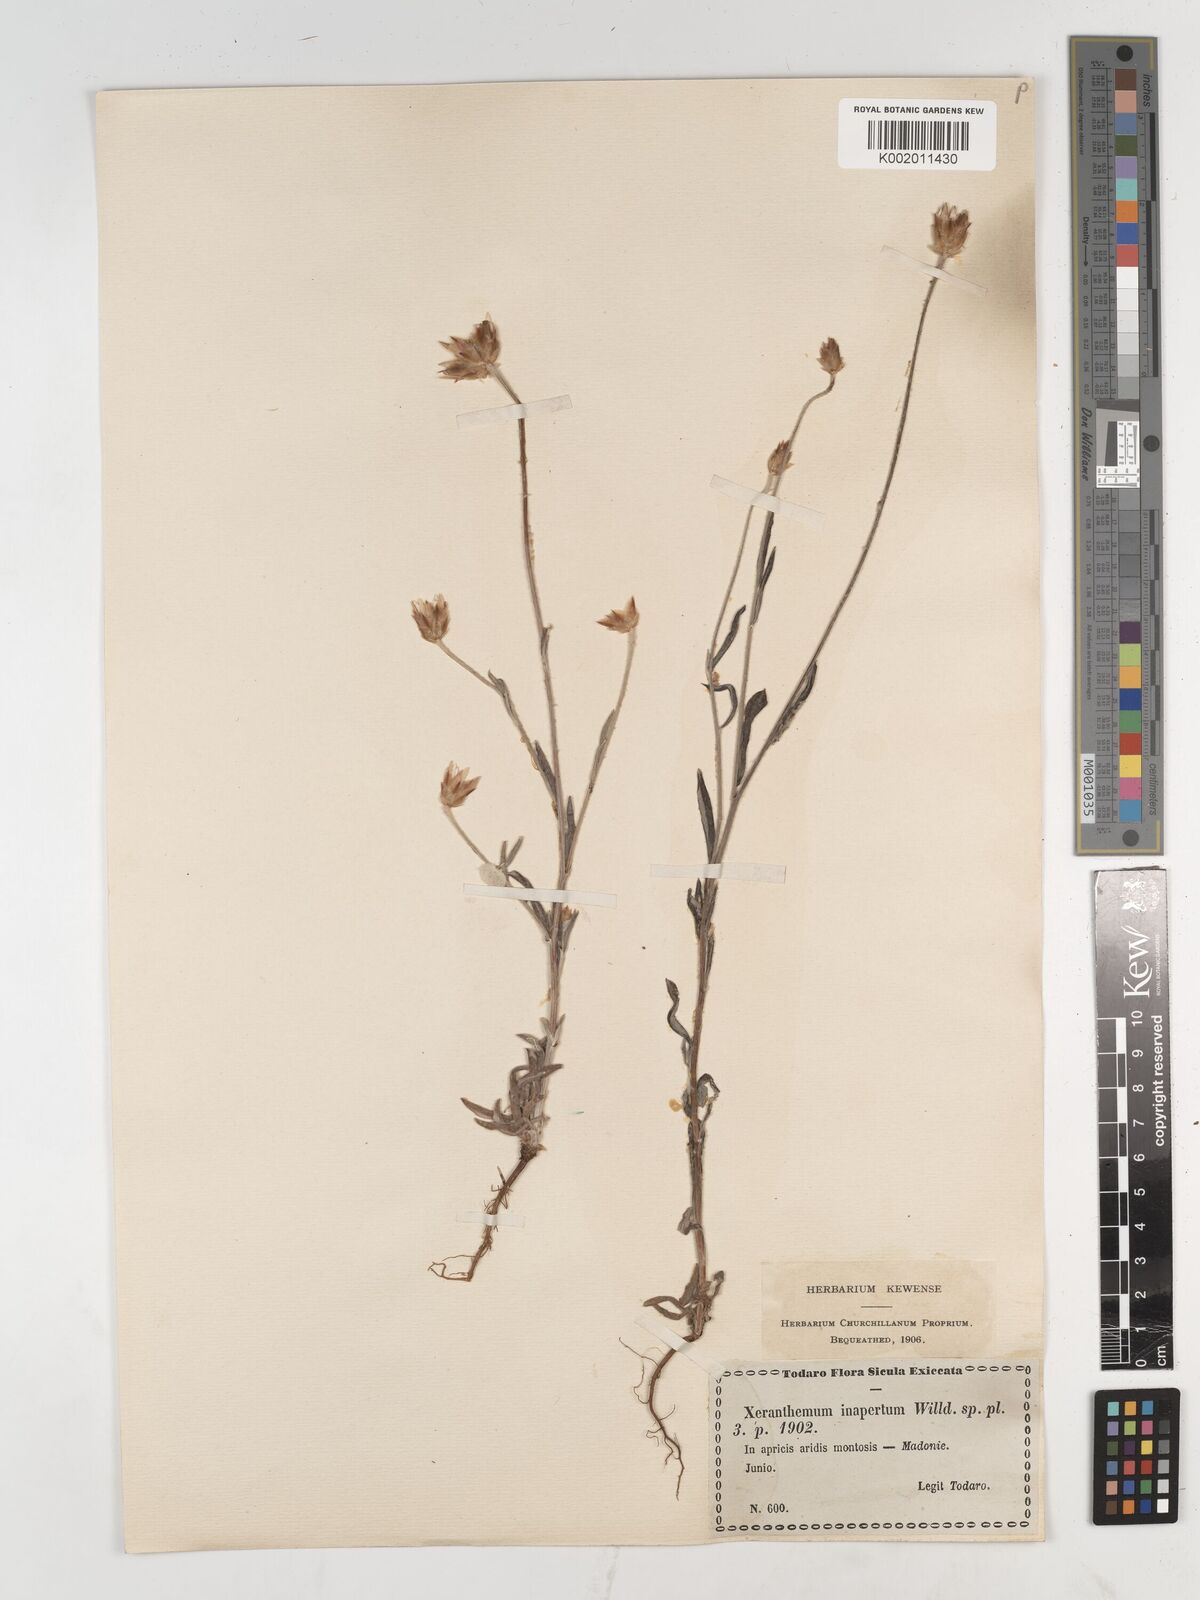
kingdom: Plantae
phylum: Tracheophyta
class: Magnoliopsida
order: Asterales
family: Asteraceae
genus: Xeranthemum
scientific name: Xeranthemum inapertum
